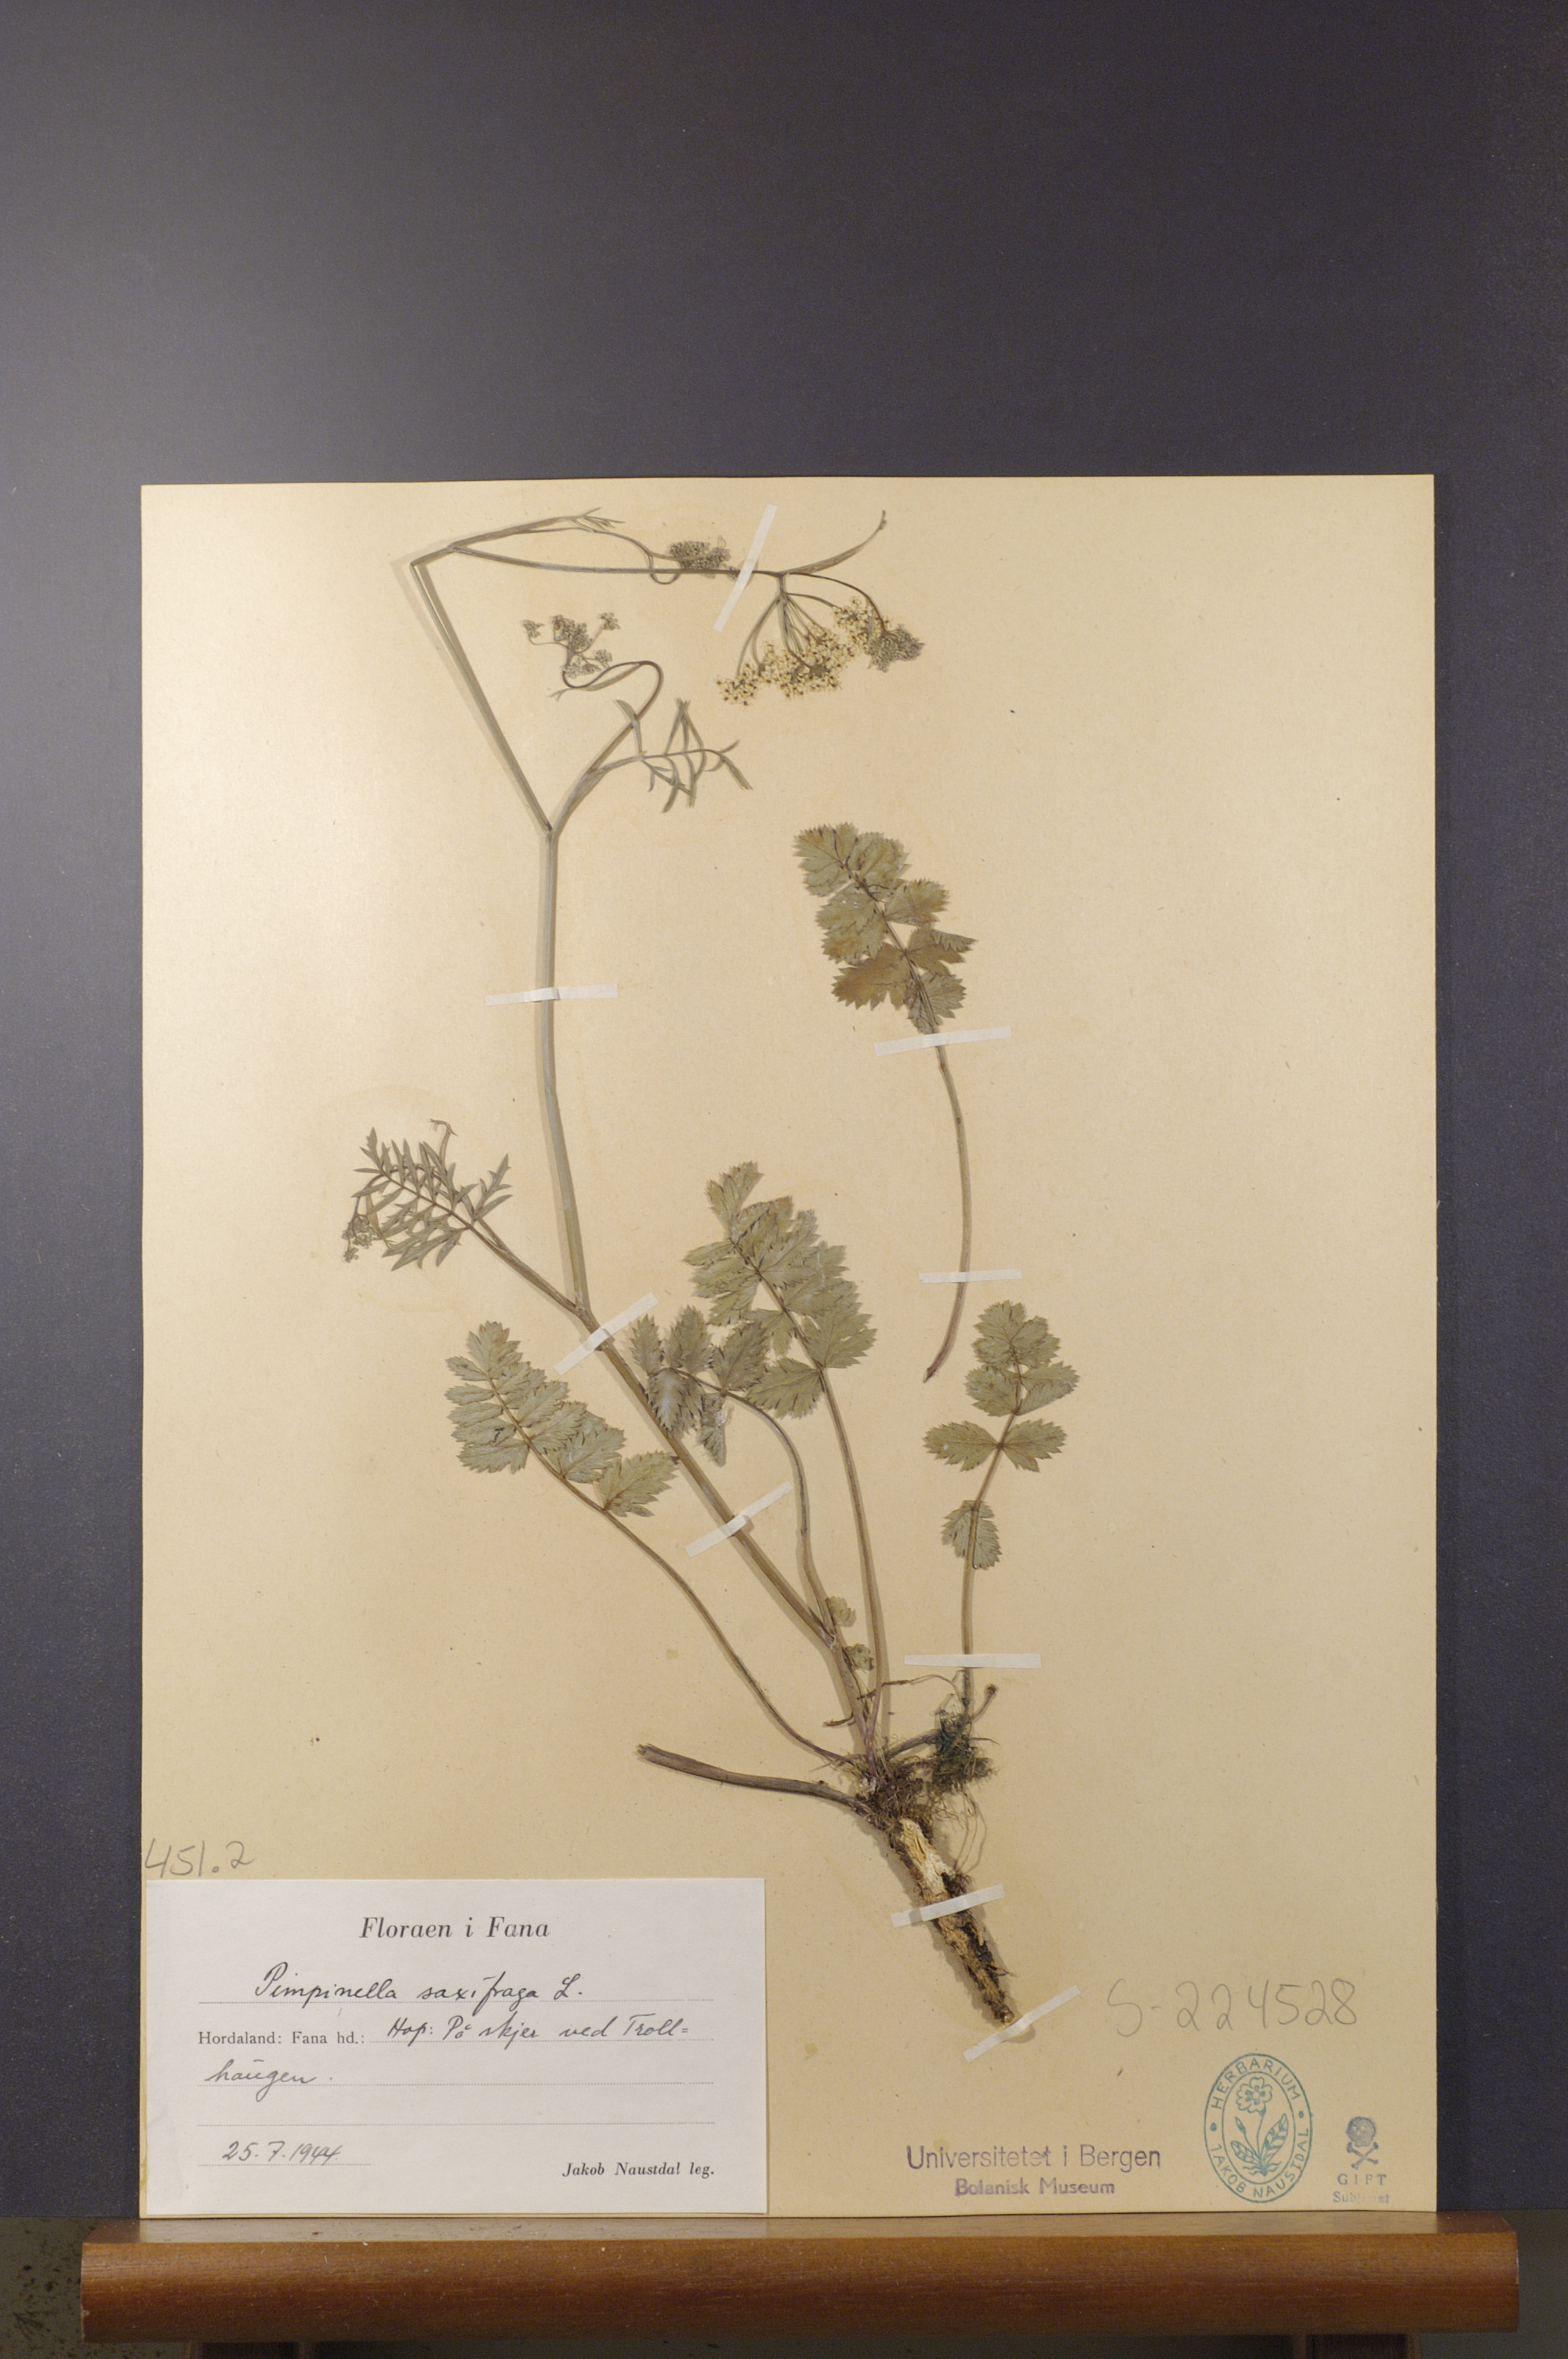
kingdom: Plantae
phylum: Tracheophyta
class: Magnoliopsida
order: Apiales
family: Apiaceae
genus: Pimpinella
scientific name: Pimpinella saxifraga
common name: Burnet-saxifrage
